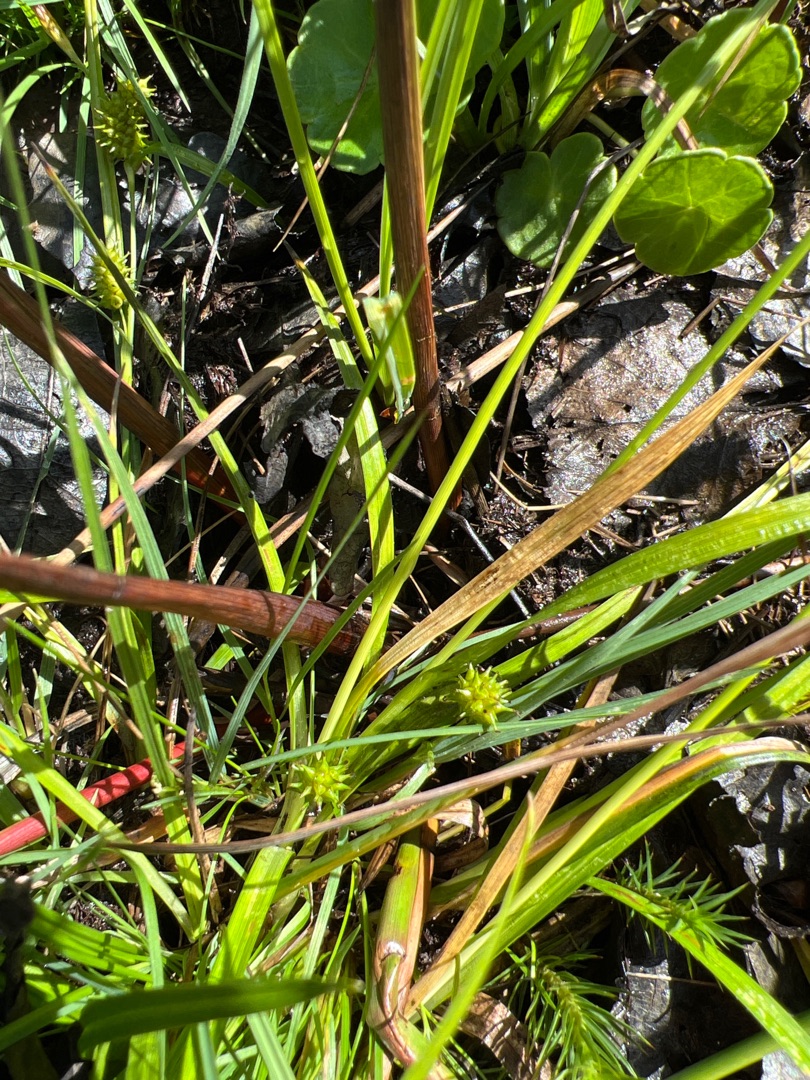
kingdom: Plantae
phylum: Tracheophyta
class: Liliopsida
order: Poales
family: Cyperaceae
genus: Carex
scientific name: Carex demissa
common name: Grøn star
